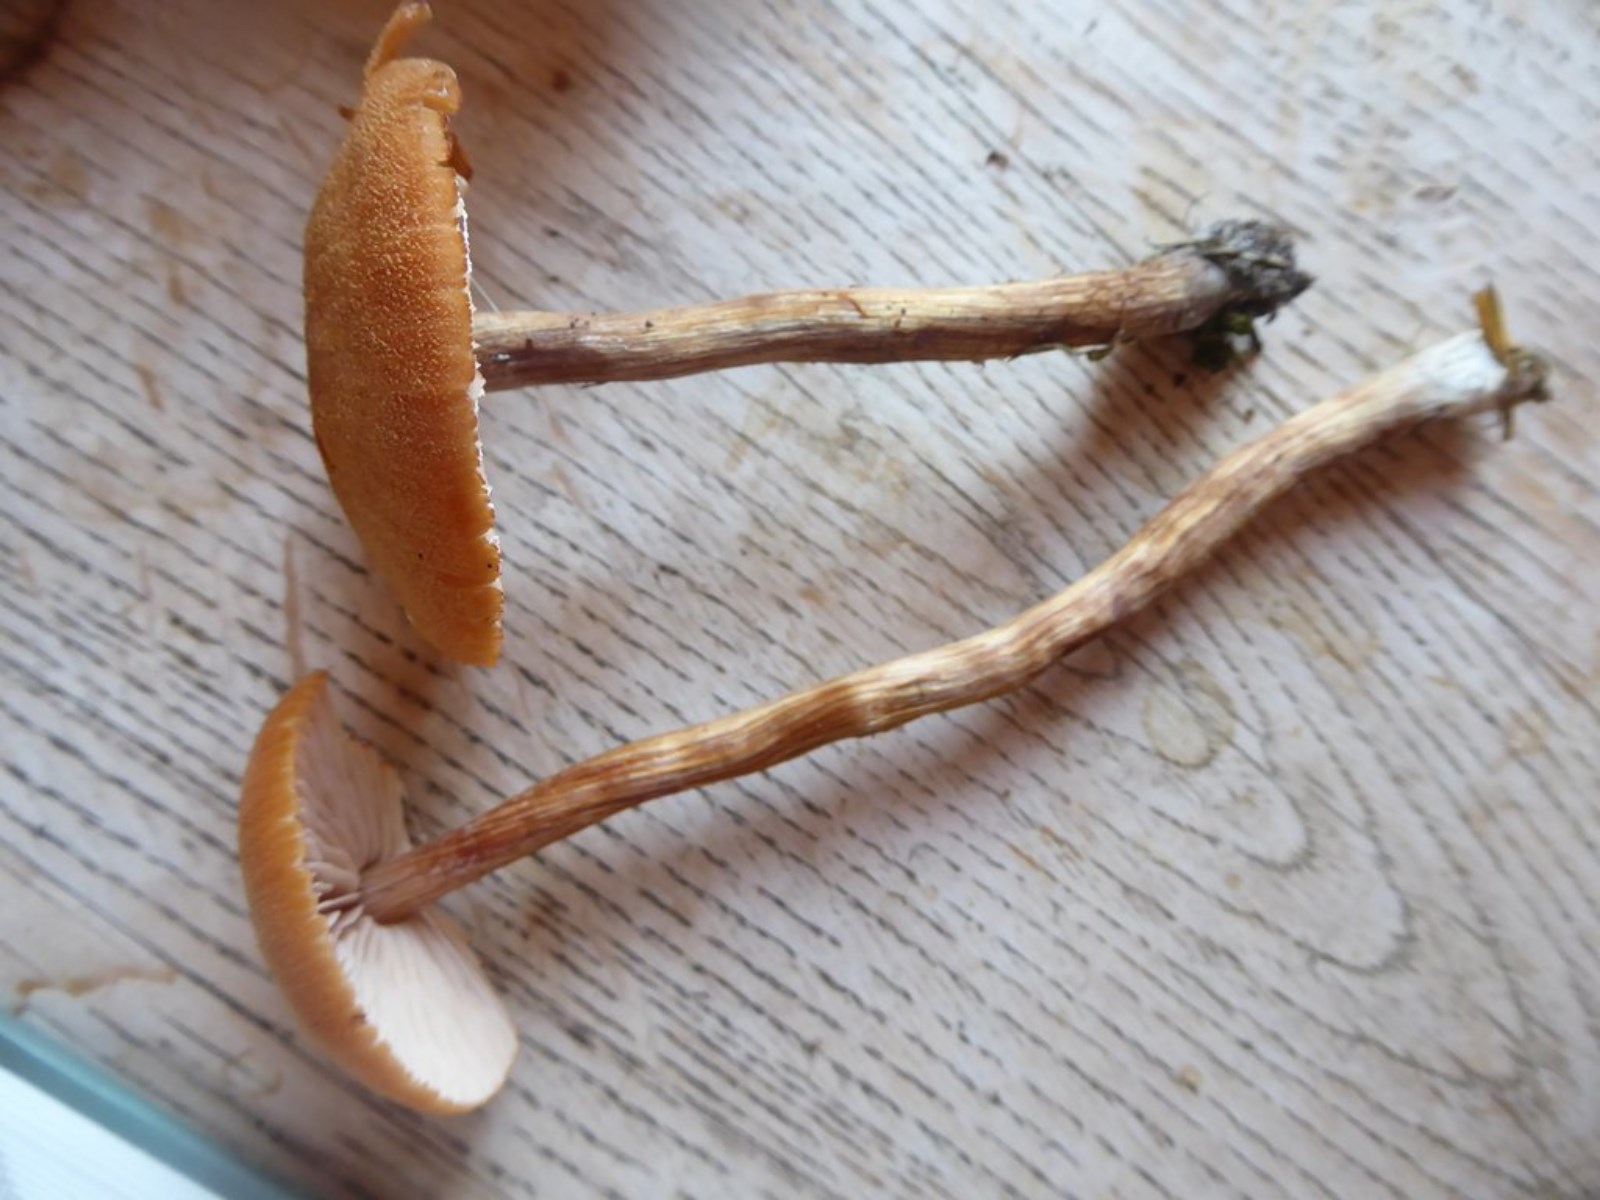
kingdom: Fungi
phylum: Basidiomycota
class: Agaricomycetes
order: Agaricales
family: Hydnangiaceae
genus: Laccaria
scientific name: Laccaria bicolor
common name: tvefarvet ametysthat
